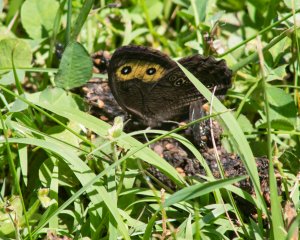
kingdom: Animalia
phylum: Arthropoda
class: Insecta
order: Lepidoptera
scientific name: Lepidoptera
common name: Butterflies
